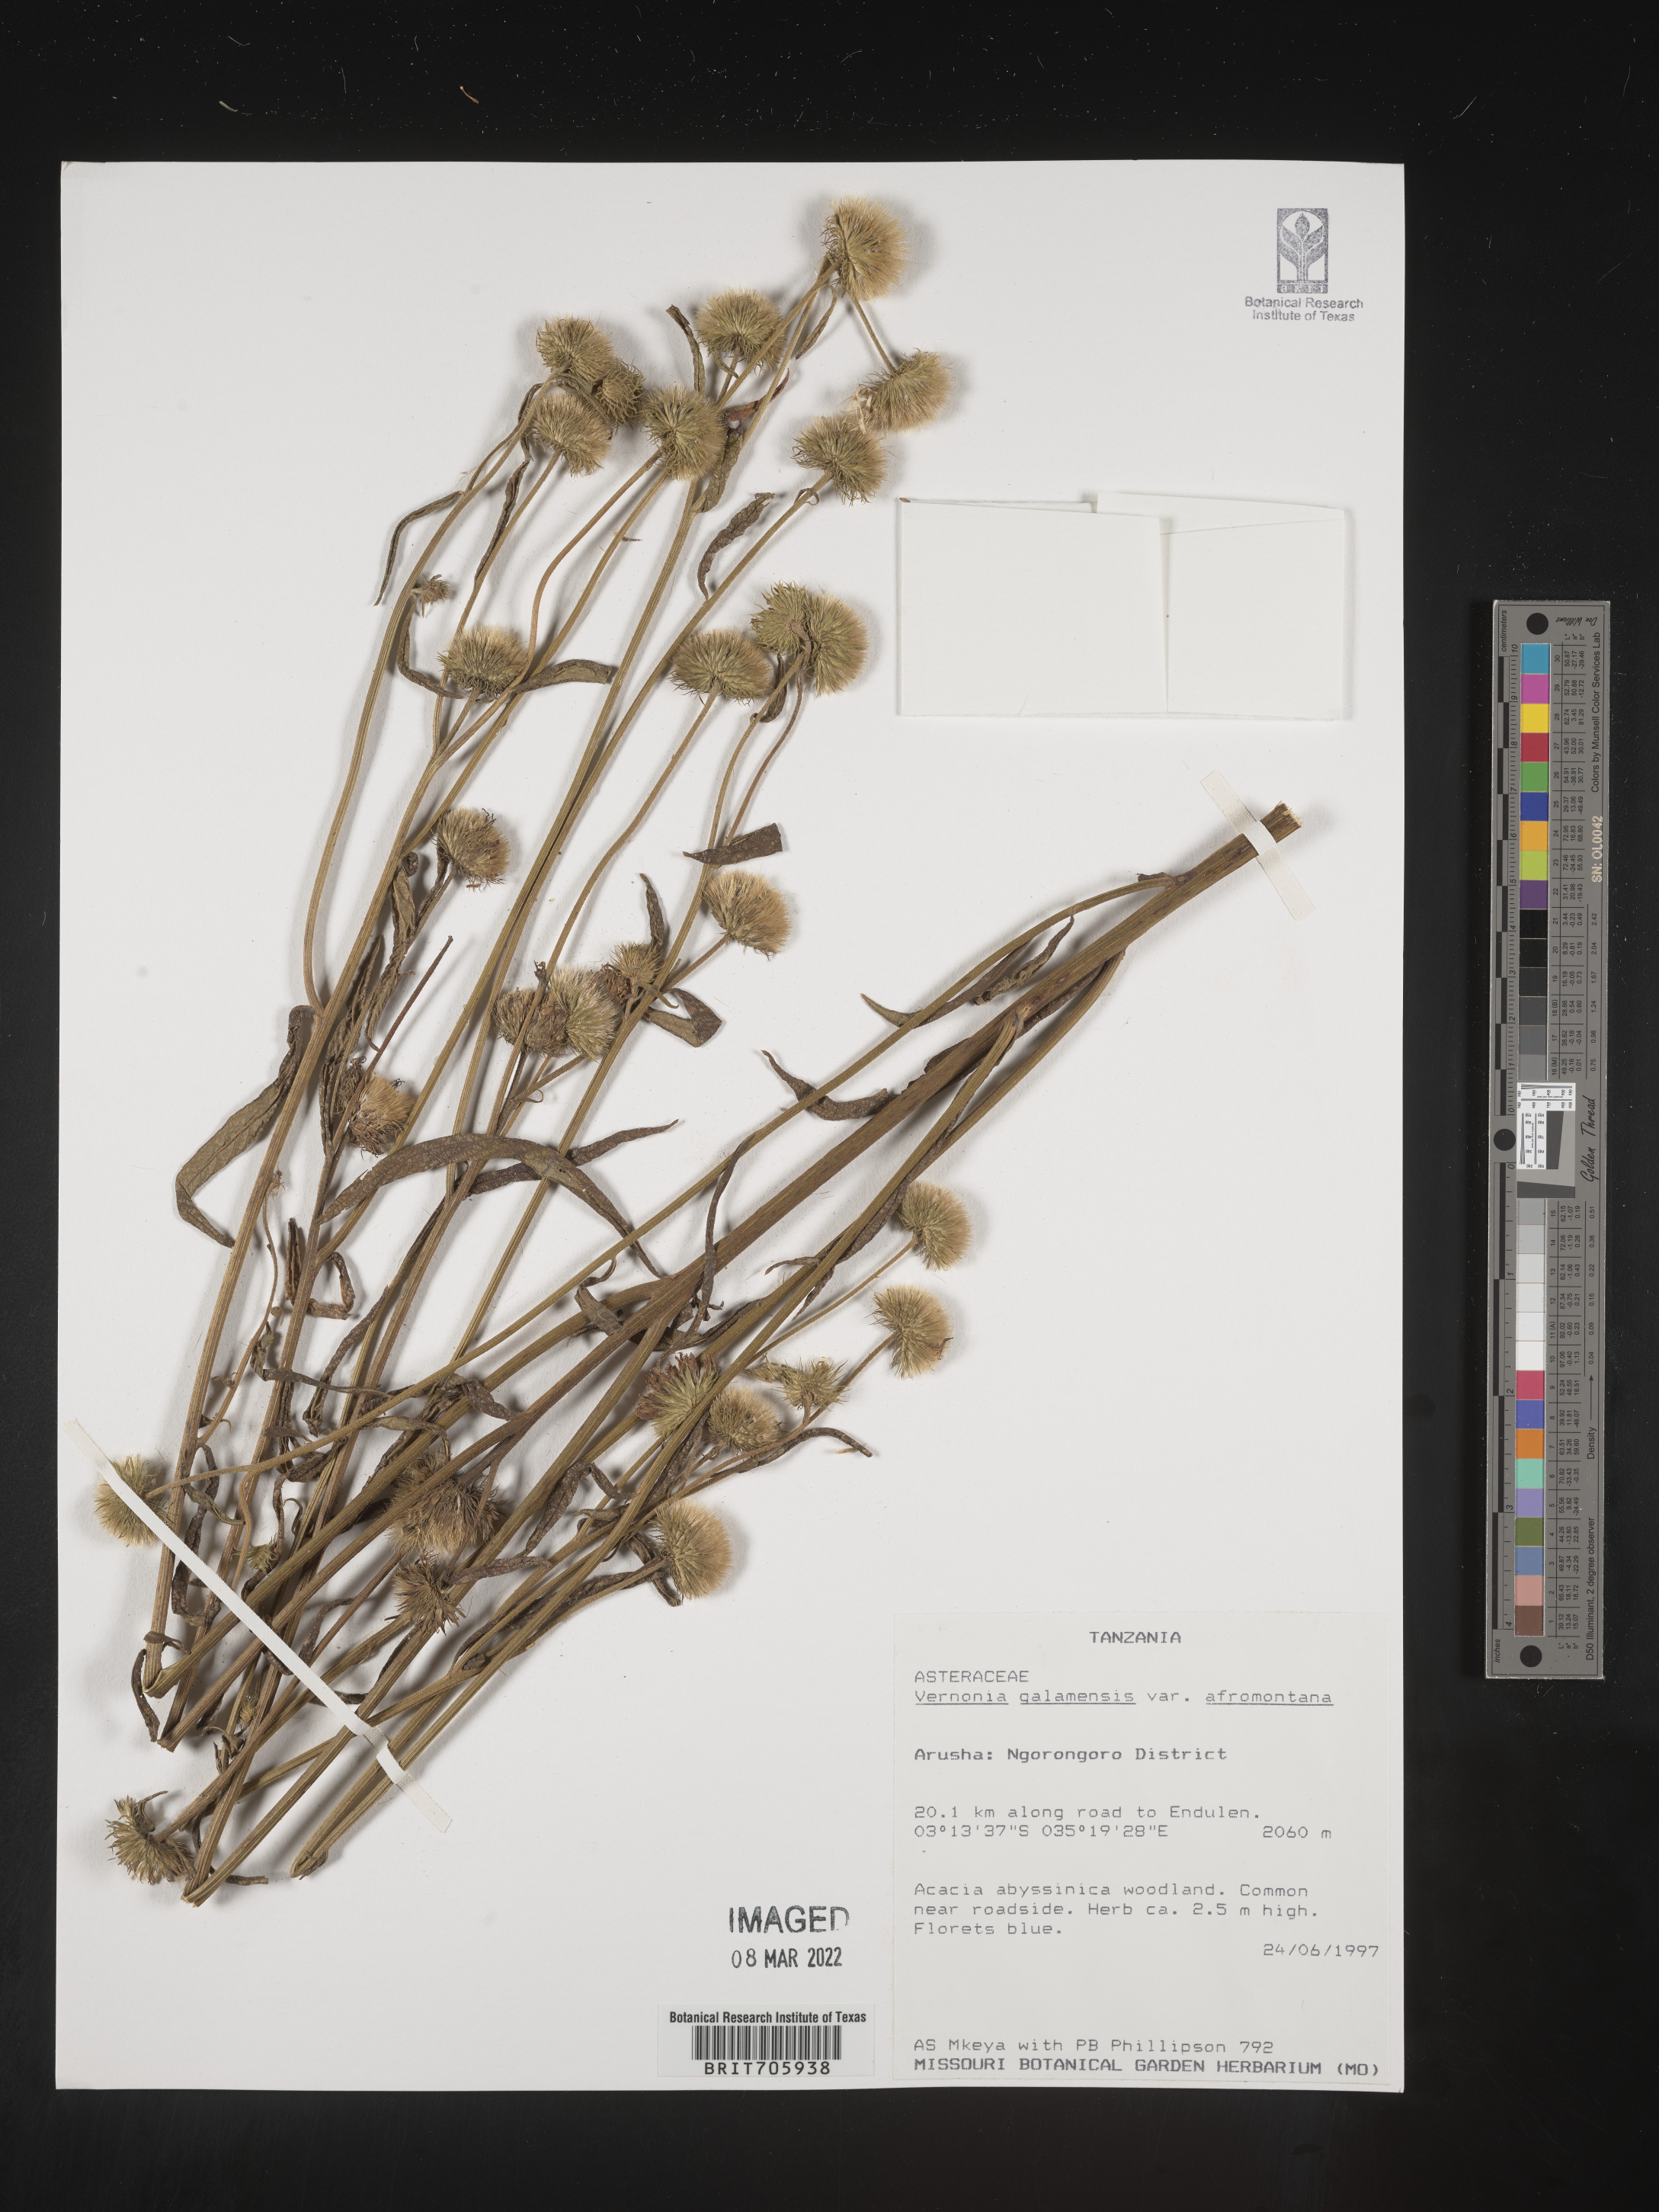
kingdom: Plantae
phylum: Tracheophyta
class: Magnoliopsida
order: Asterales
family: Asteraceae
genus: Vernonia
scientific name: Vernonia
